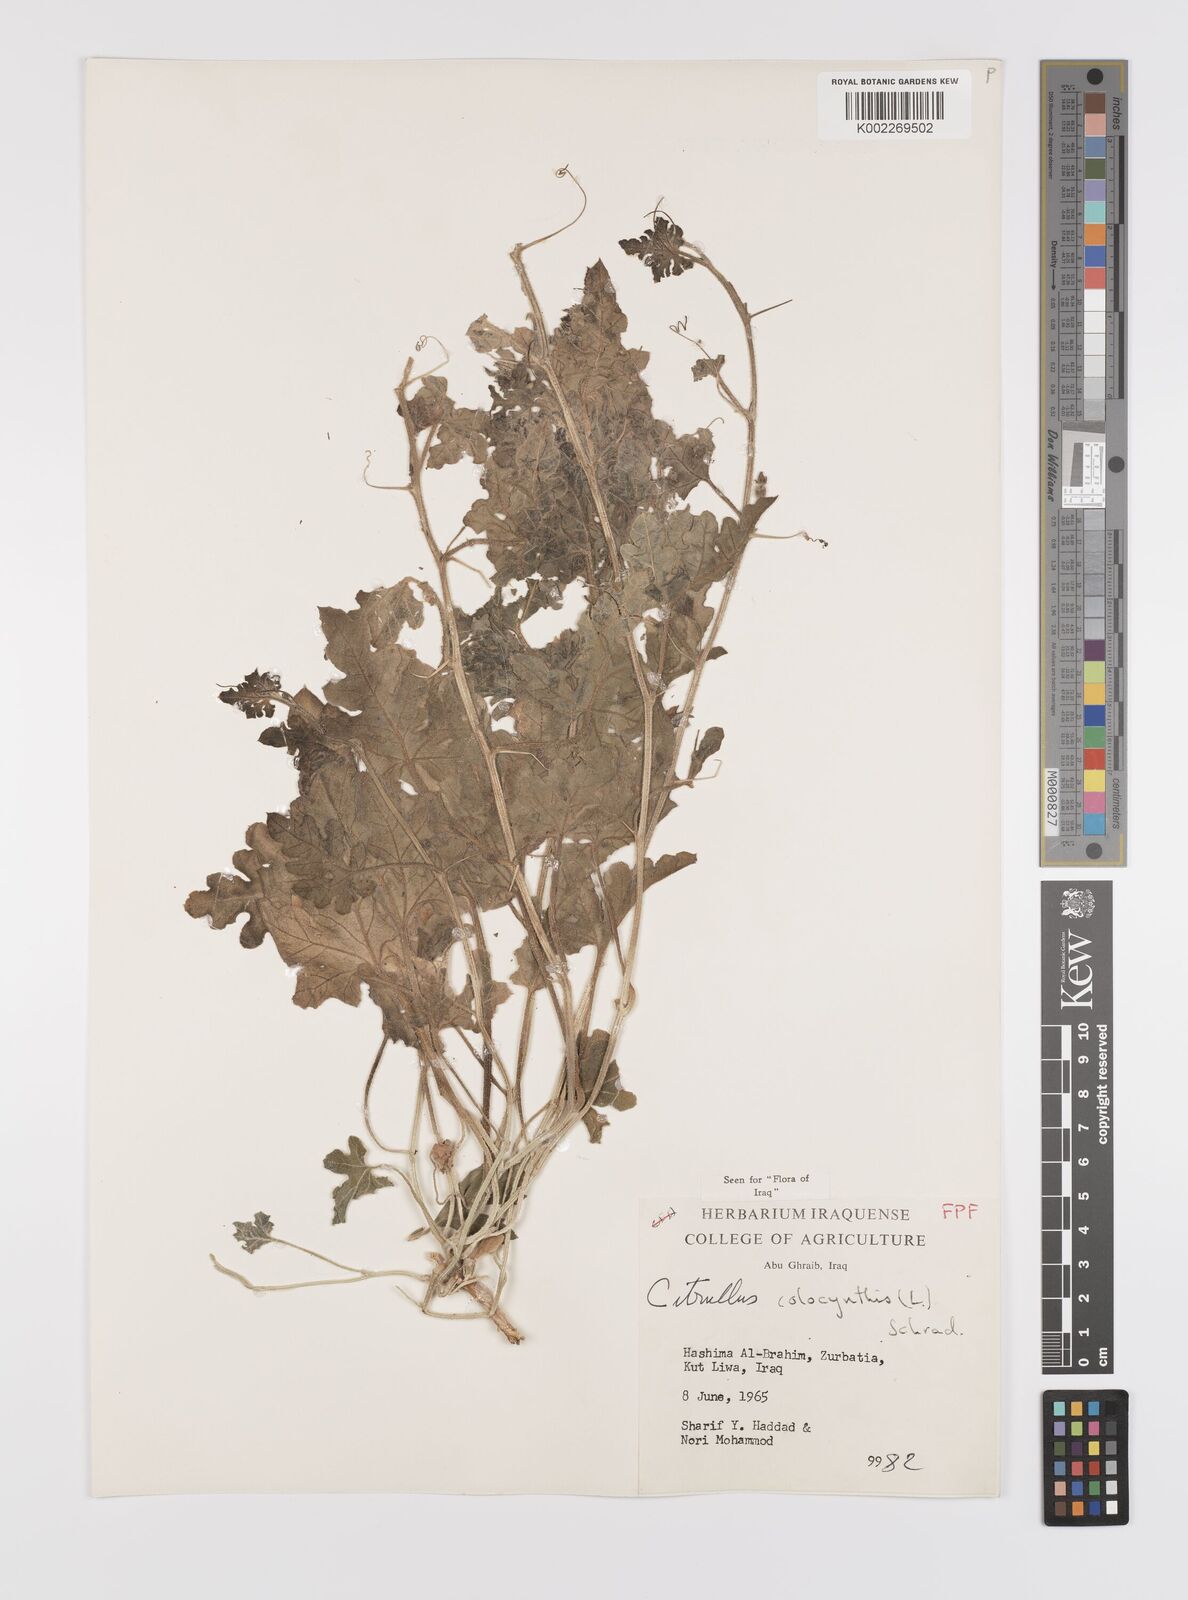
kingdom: Plantae
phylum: Tracheophyta
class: Magnoliopsida
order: Cucurbitales
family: Cucurbitaceae
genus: Citrullus
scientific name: Citrullus colocynthis
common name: Colocynth
